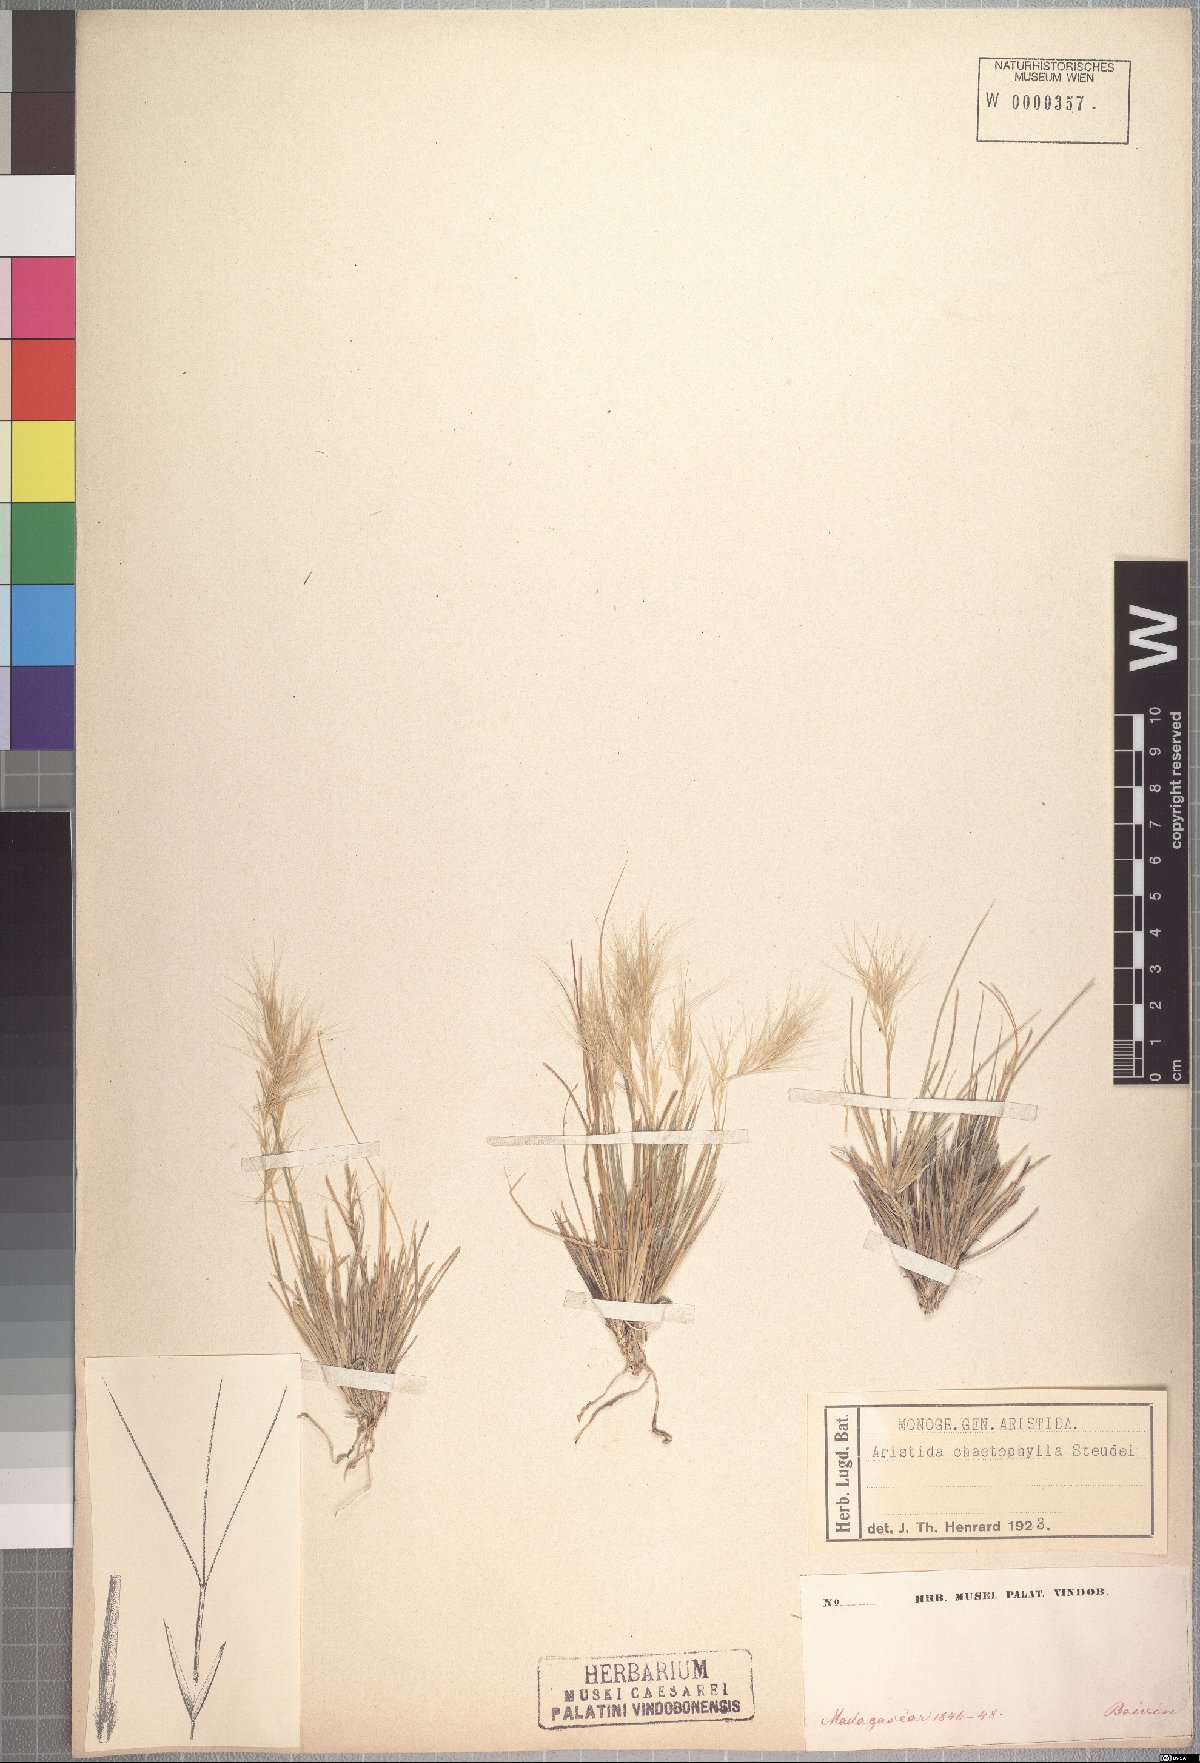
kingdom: Plantae
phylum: Tracheophyta
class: Liliopsida
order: Poales
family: Poaceae
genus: Aristida
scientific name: Aristida adscensionis
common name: Sixweeks threeawn
